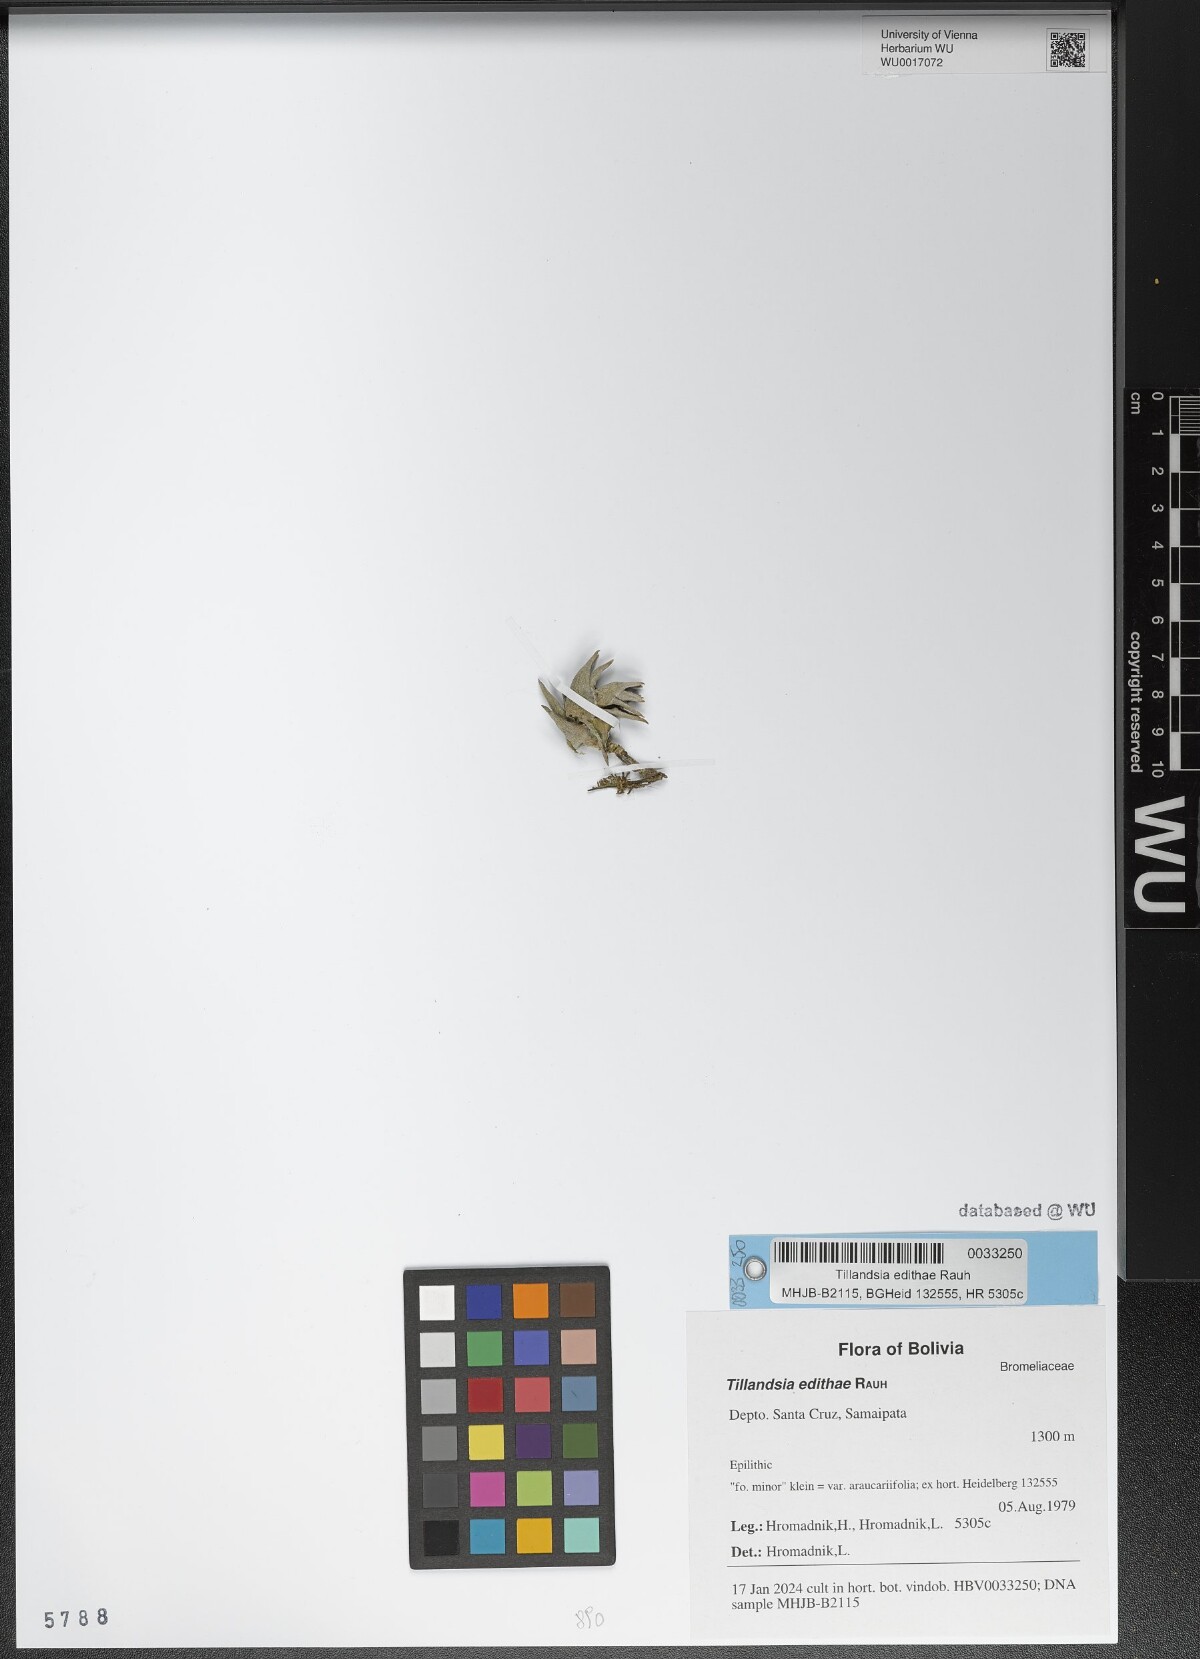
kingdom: Plantae
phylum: Tracheophyta
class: Liliopsida
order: Poales
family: Bromeliaceae
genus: Tillandsia
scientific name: Tillandsia edithae
